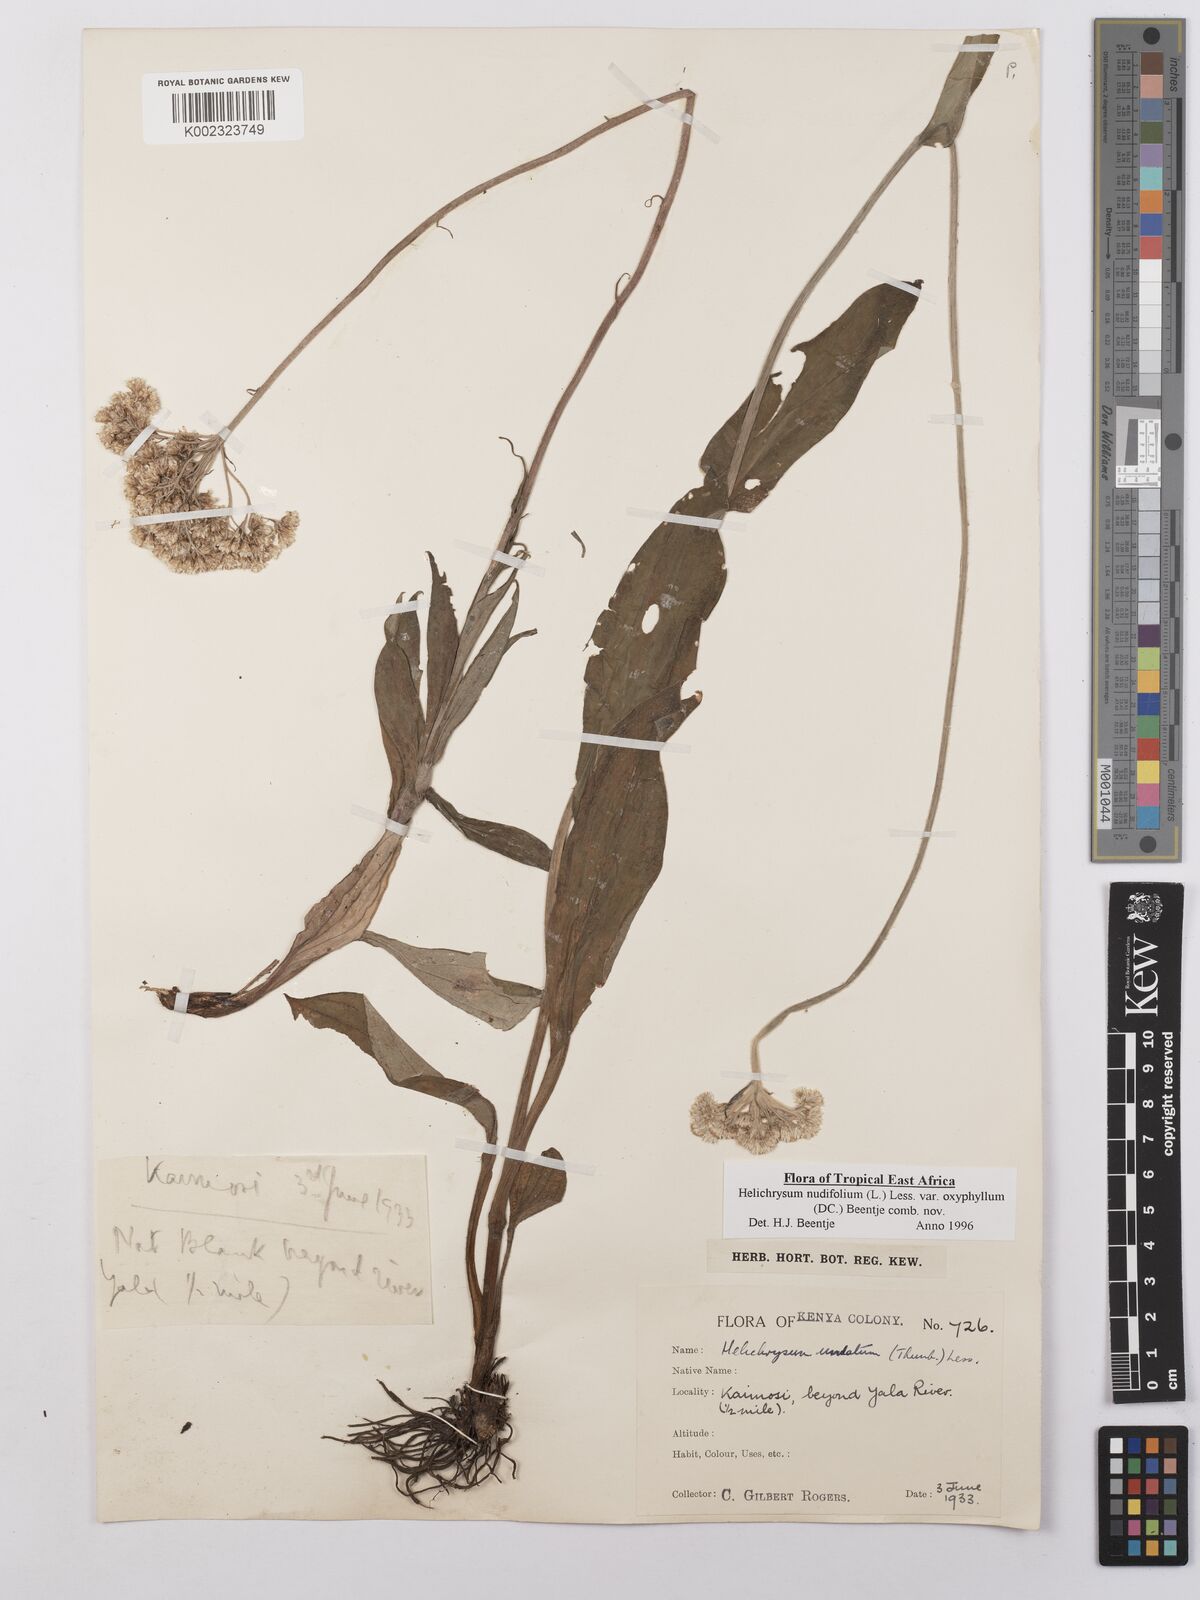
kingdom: Plantae
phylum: Tracheophyta
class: Magnoliopsida
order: Asterales
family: Asteraceae
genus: Helichrysum
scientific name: Helichrysum nudifolium
